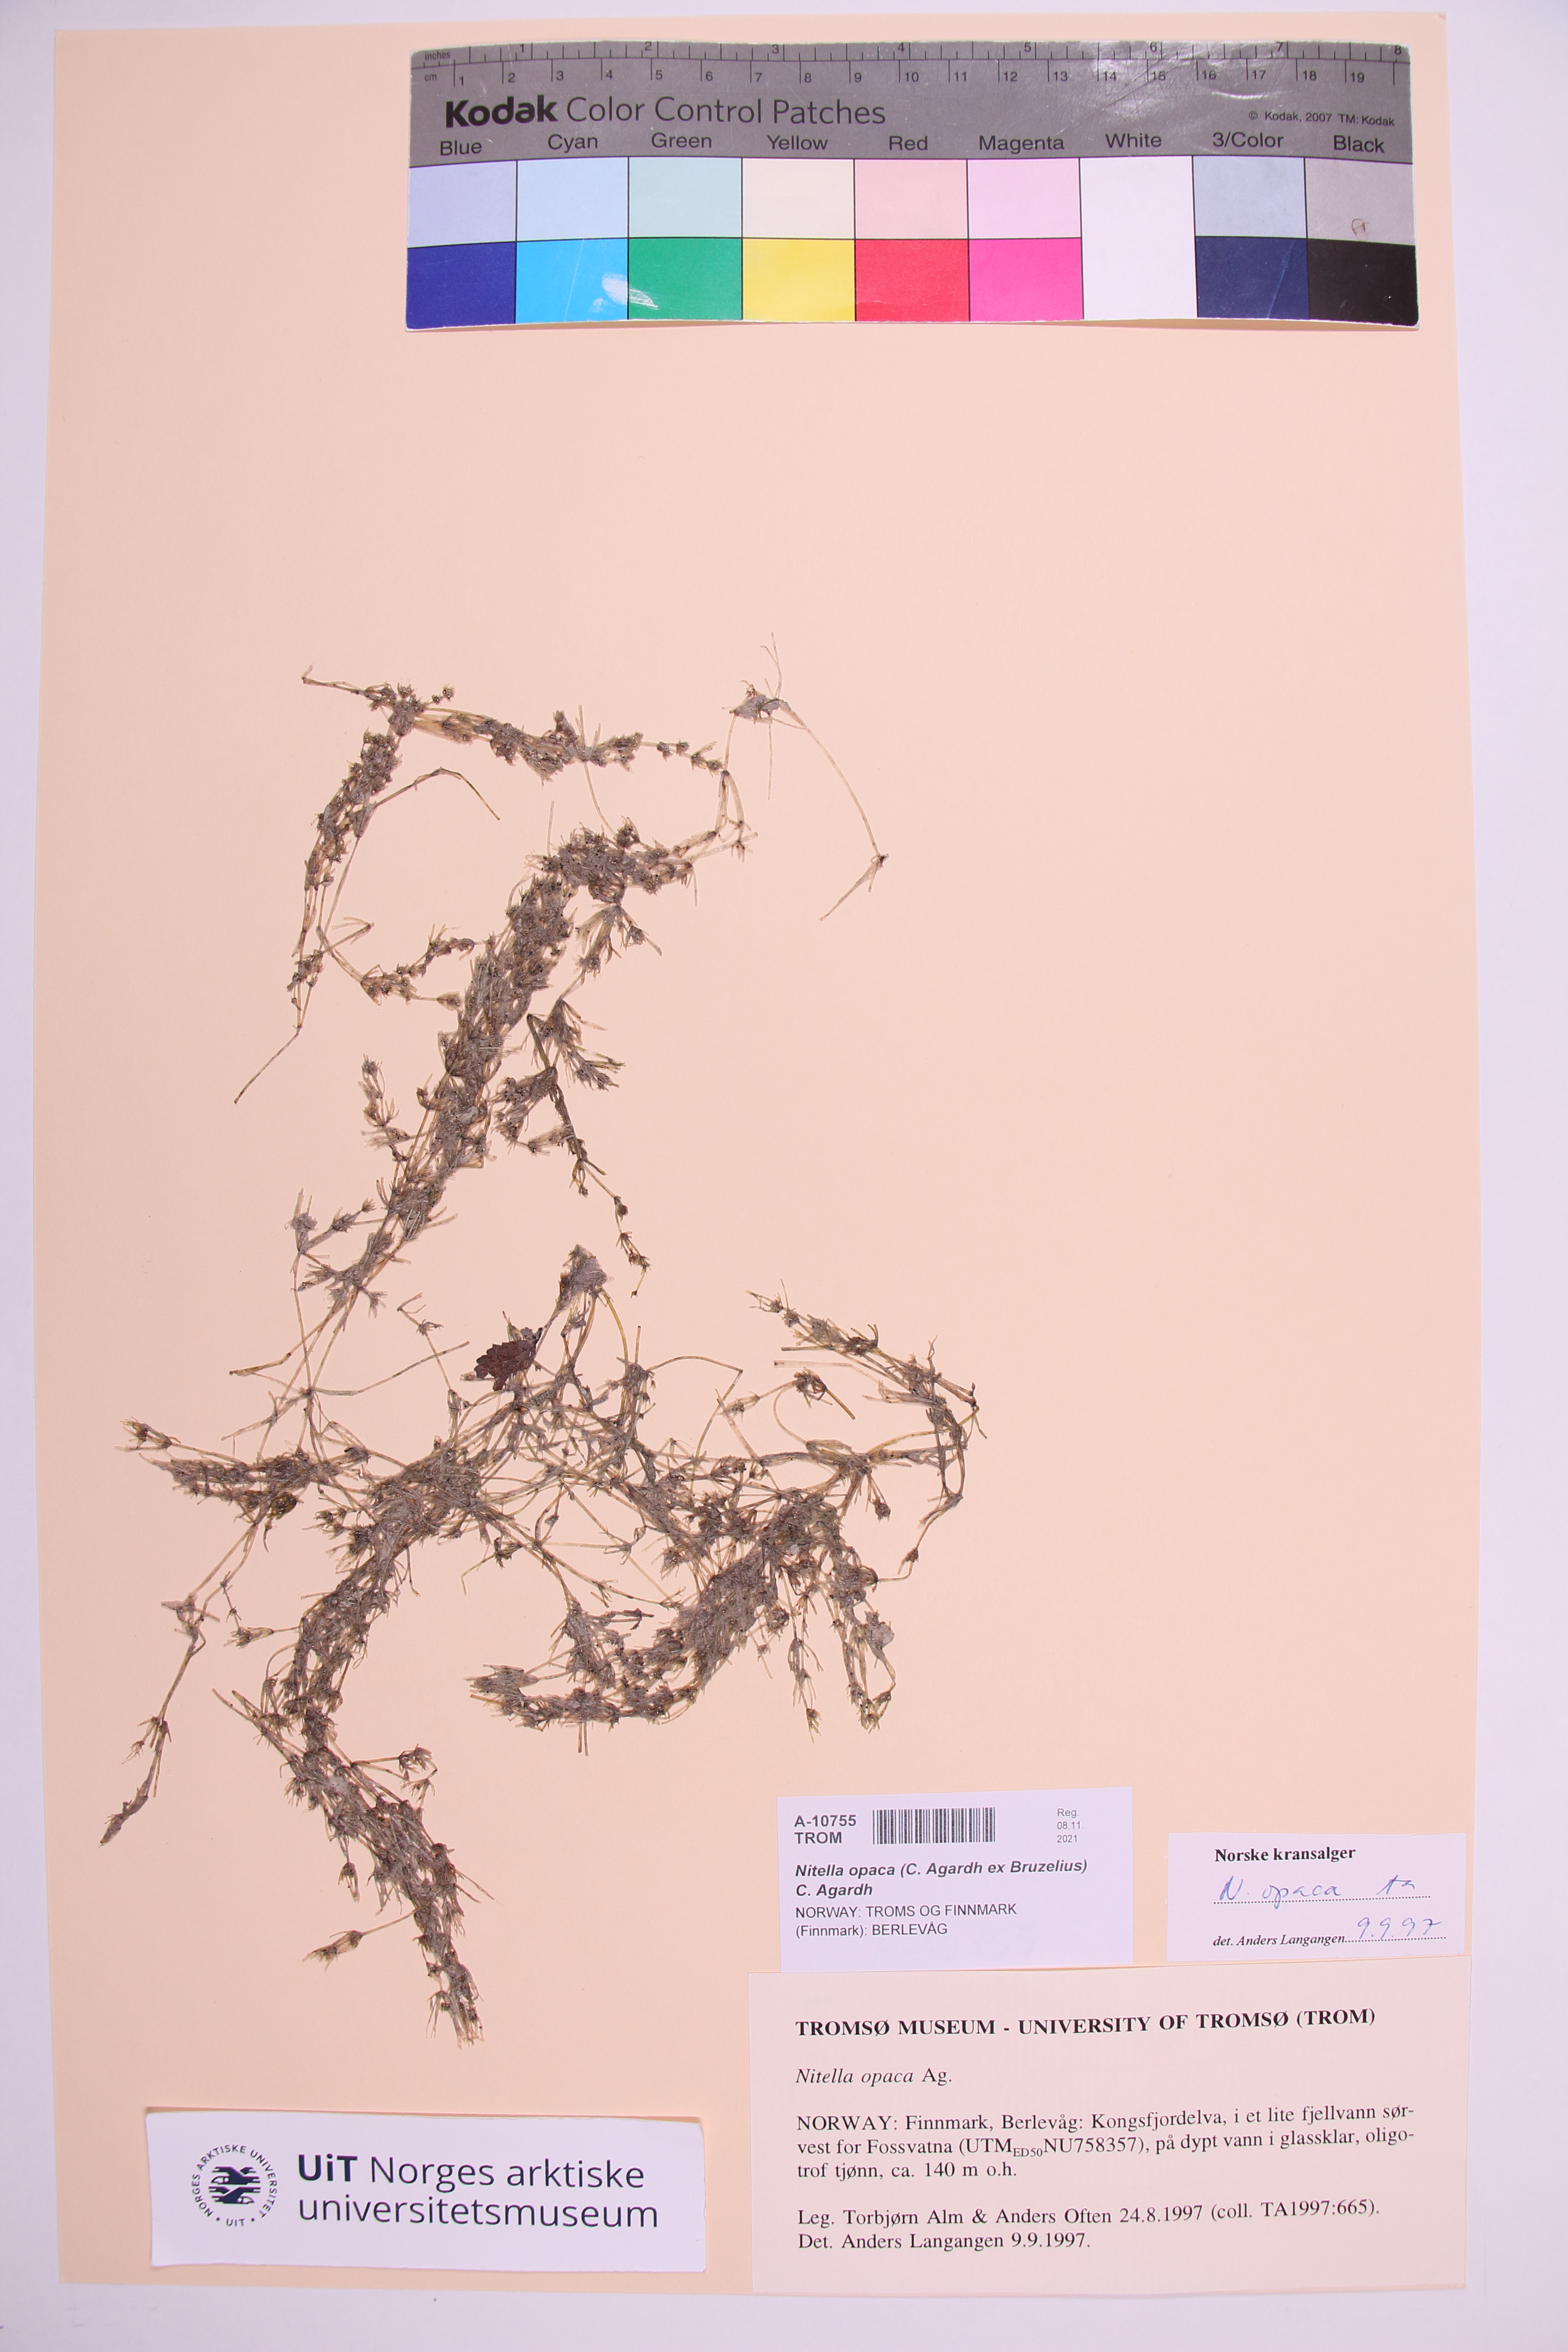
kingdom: Plantae
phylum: Charophyta
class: Charophyceae
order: Charales
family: Characeae
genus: Nitella
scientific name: Nitella opaca
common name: Dark stonewort
